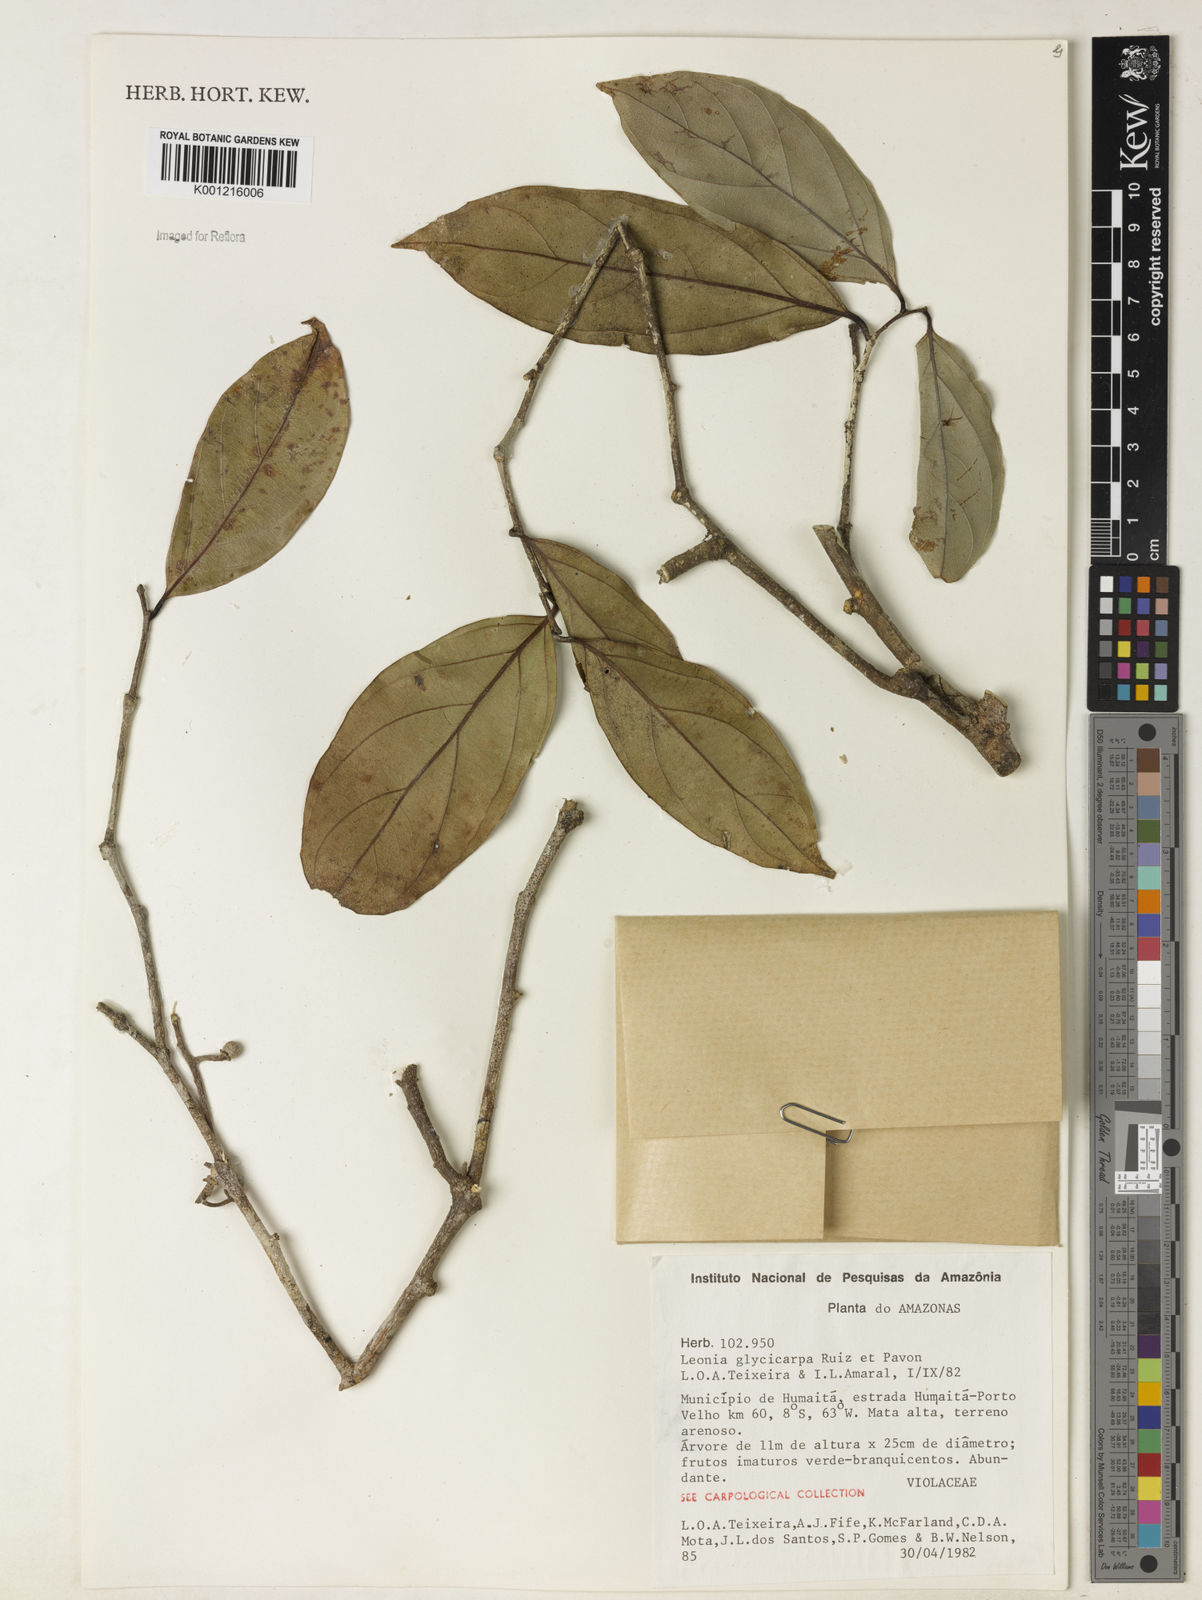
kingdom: Plantae
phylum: Tracheophyta
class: Magnoliopsida
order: Malpighiales
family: Violaceae
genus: Leonia
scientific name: Leonia glycycarpa
